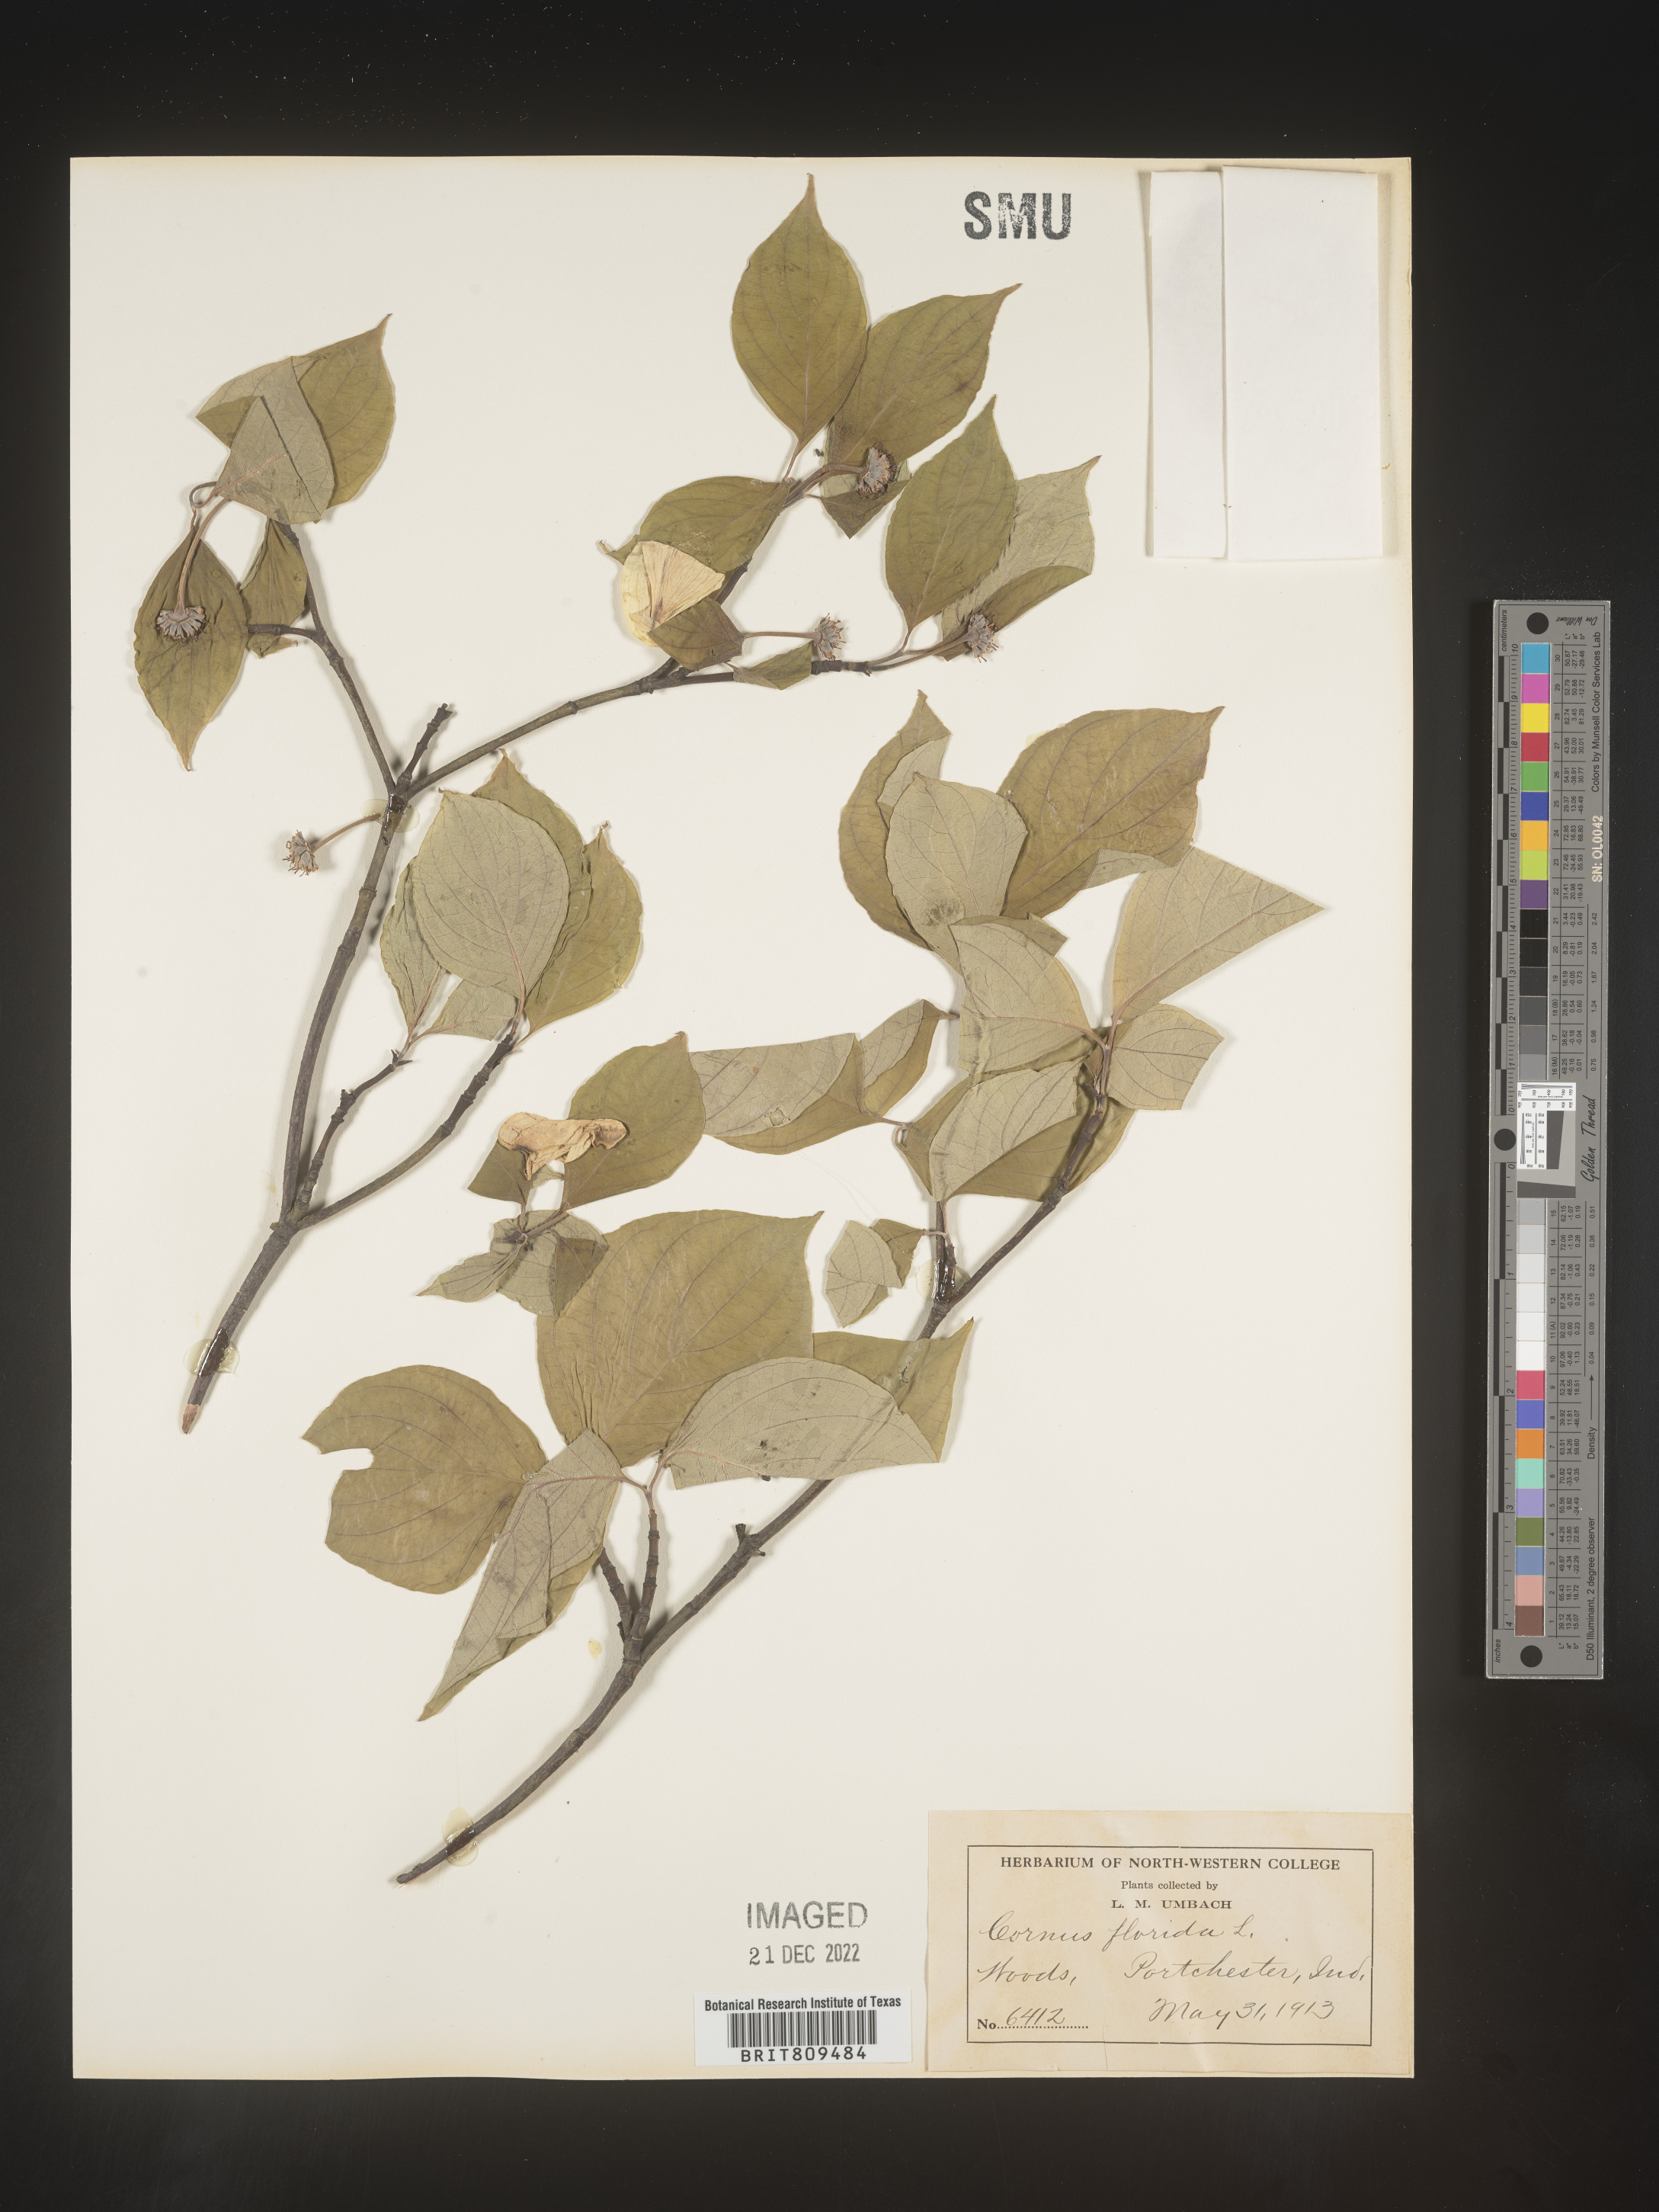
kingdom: Plantae
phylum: Tracheophyta
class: Magnoliopsida
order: Cornales
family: Cornaceae
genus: Cornus
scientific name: Cornus florida
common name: Flowering dogwood
